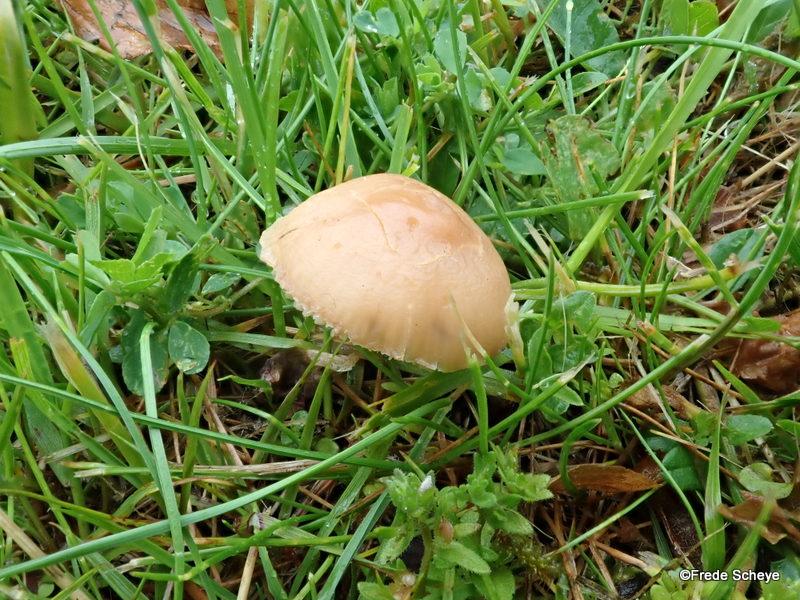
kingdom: Fungi
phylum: Basidiomycota
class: Agaricomycetes
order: Agaricales
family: Marasmiaceae
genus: Marasmius
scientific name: Marasmius oreades
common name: elledans-bruskhat
